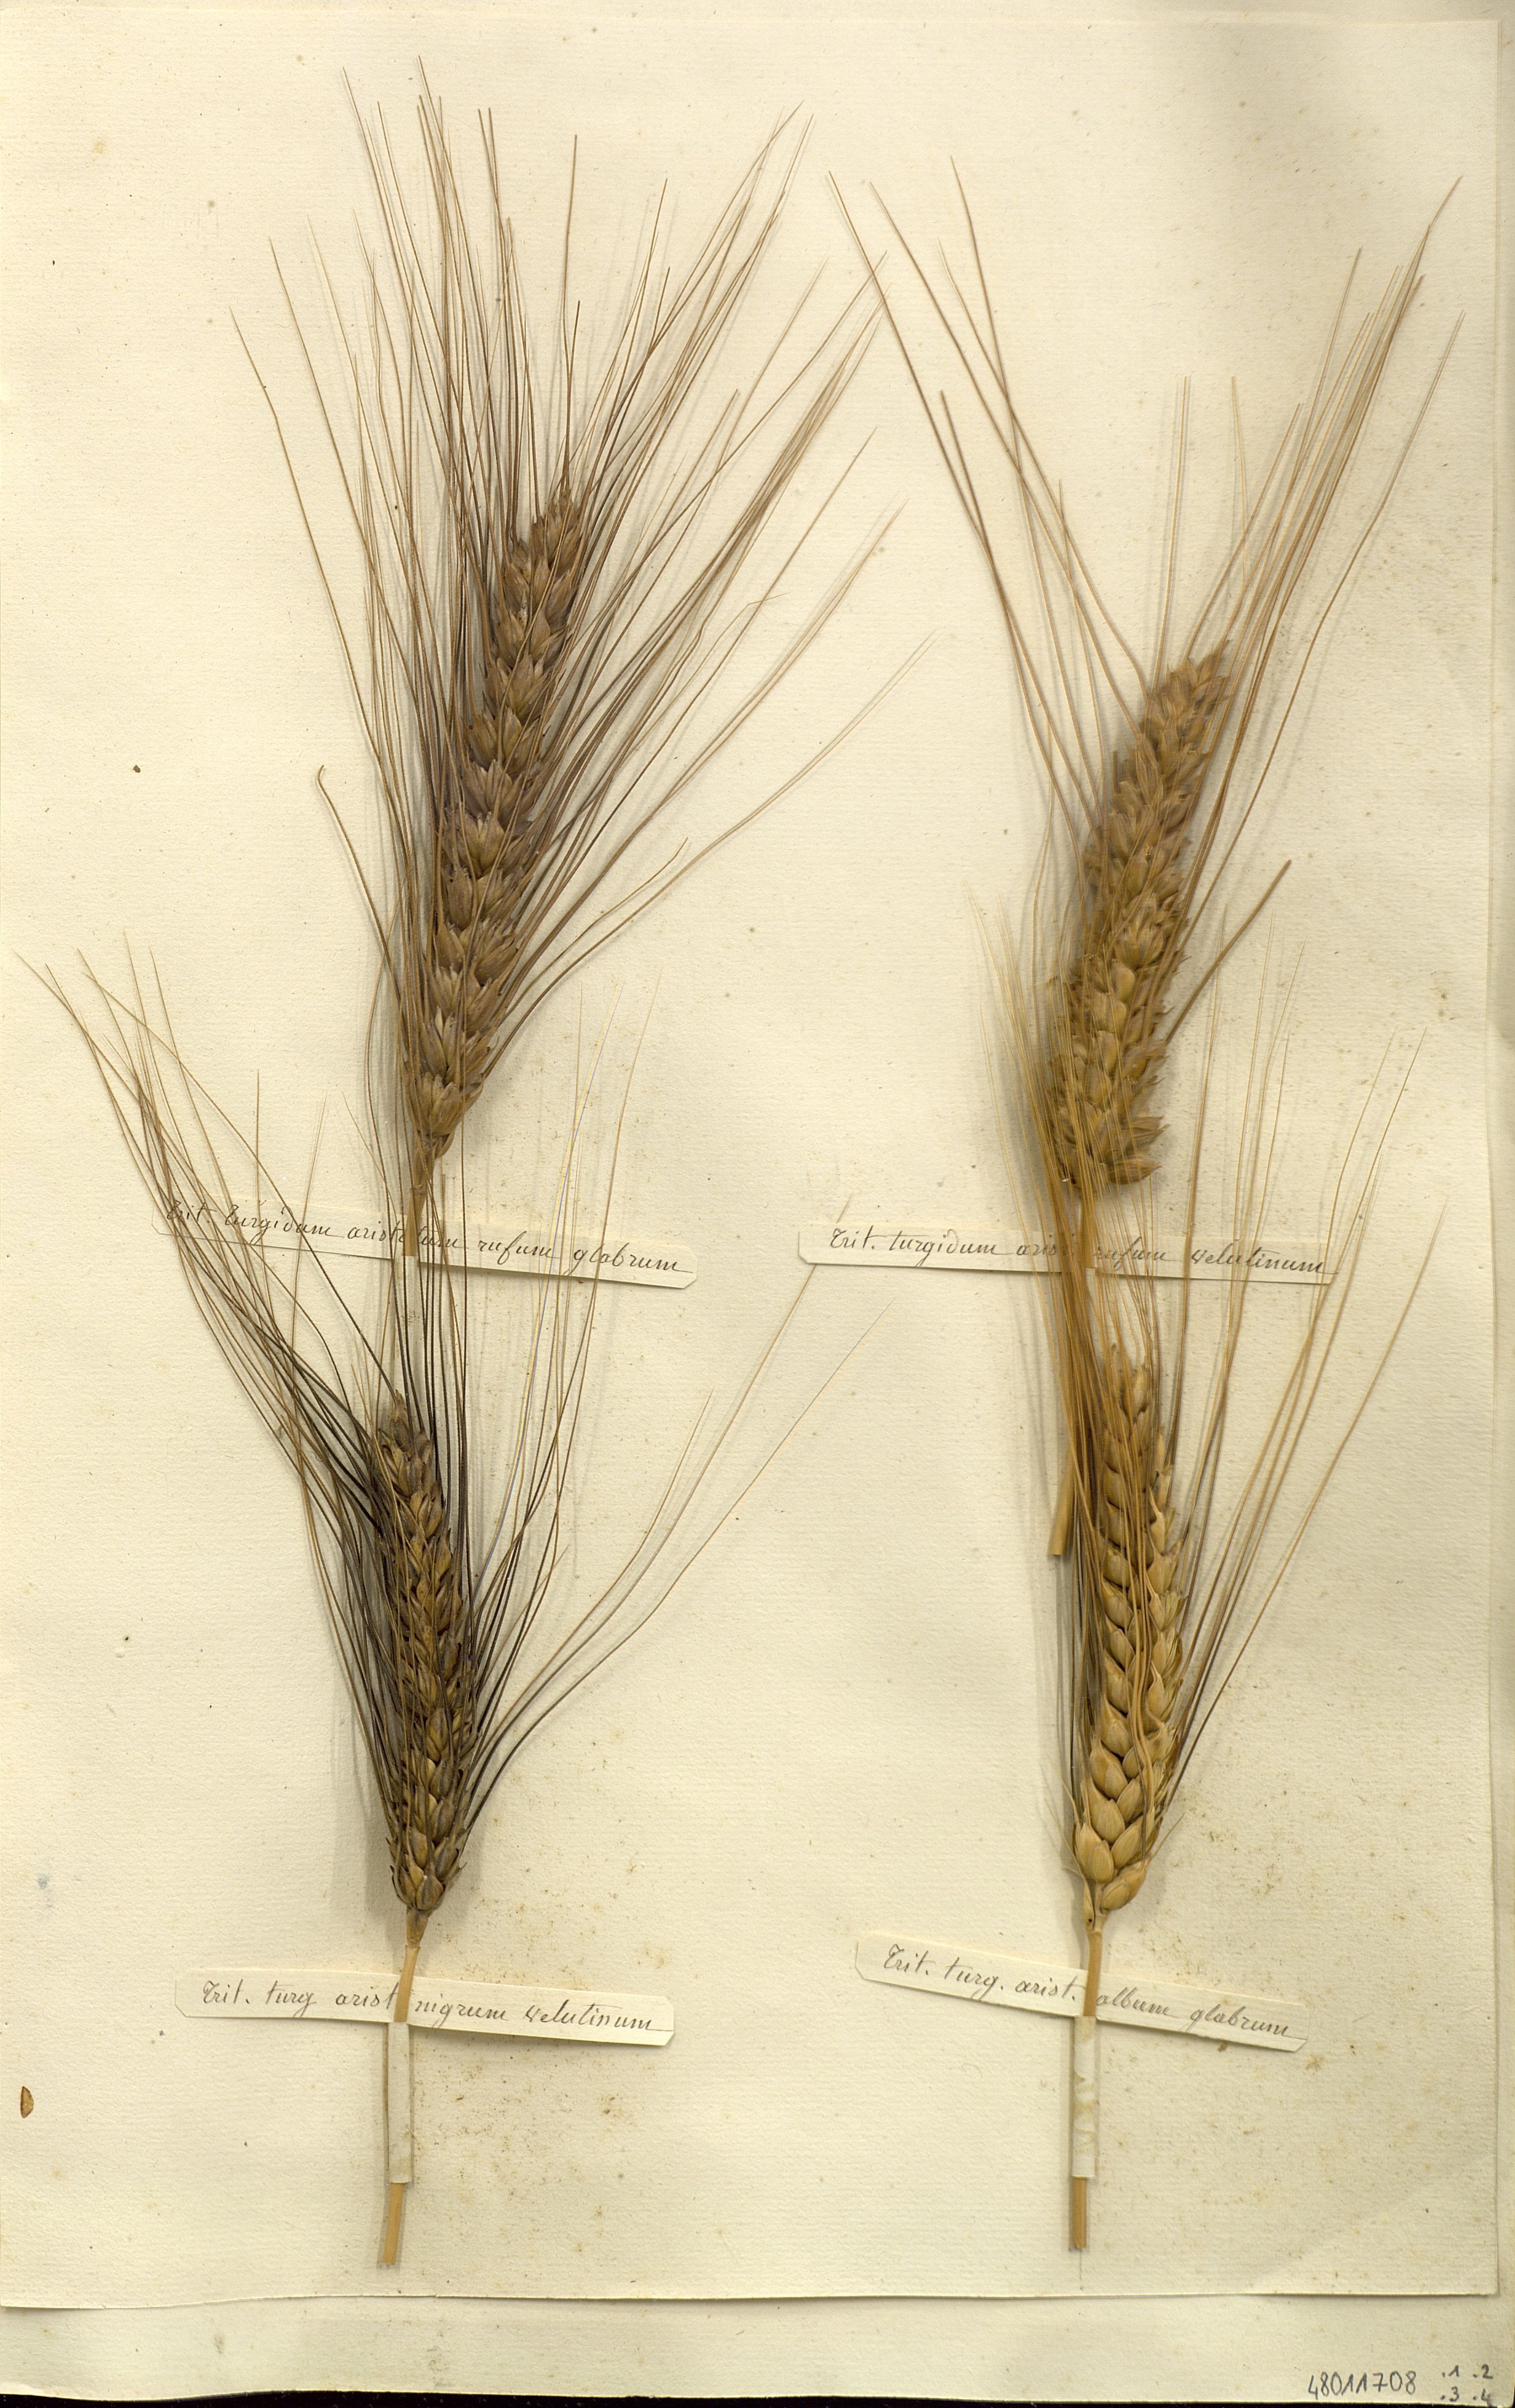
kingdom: Plantae
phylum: Tracheophyta
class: Liliopsida
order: Poales
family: Poaceae
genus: Triticum
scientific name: Triticum turgidum
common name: Rivet wheat
